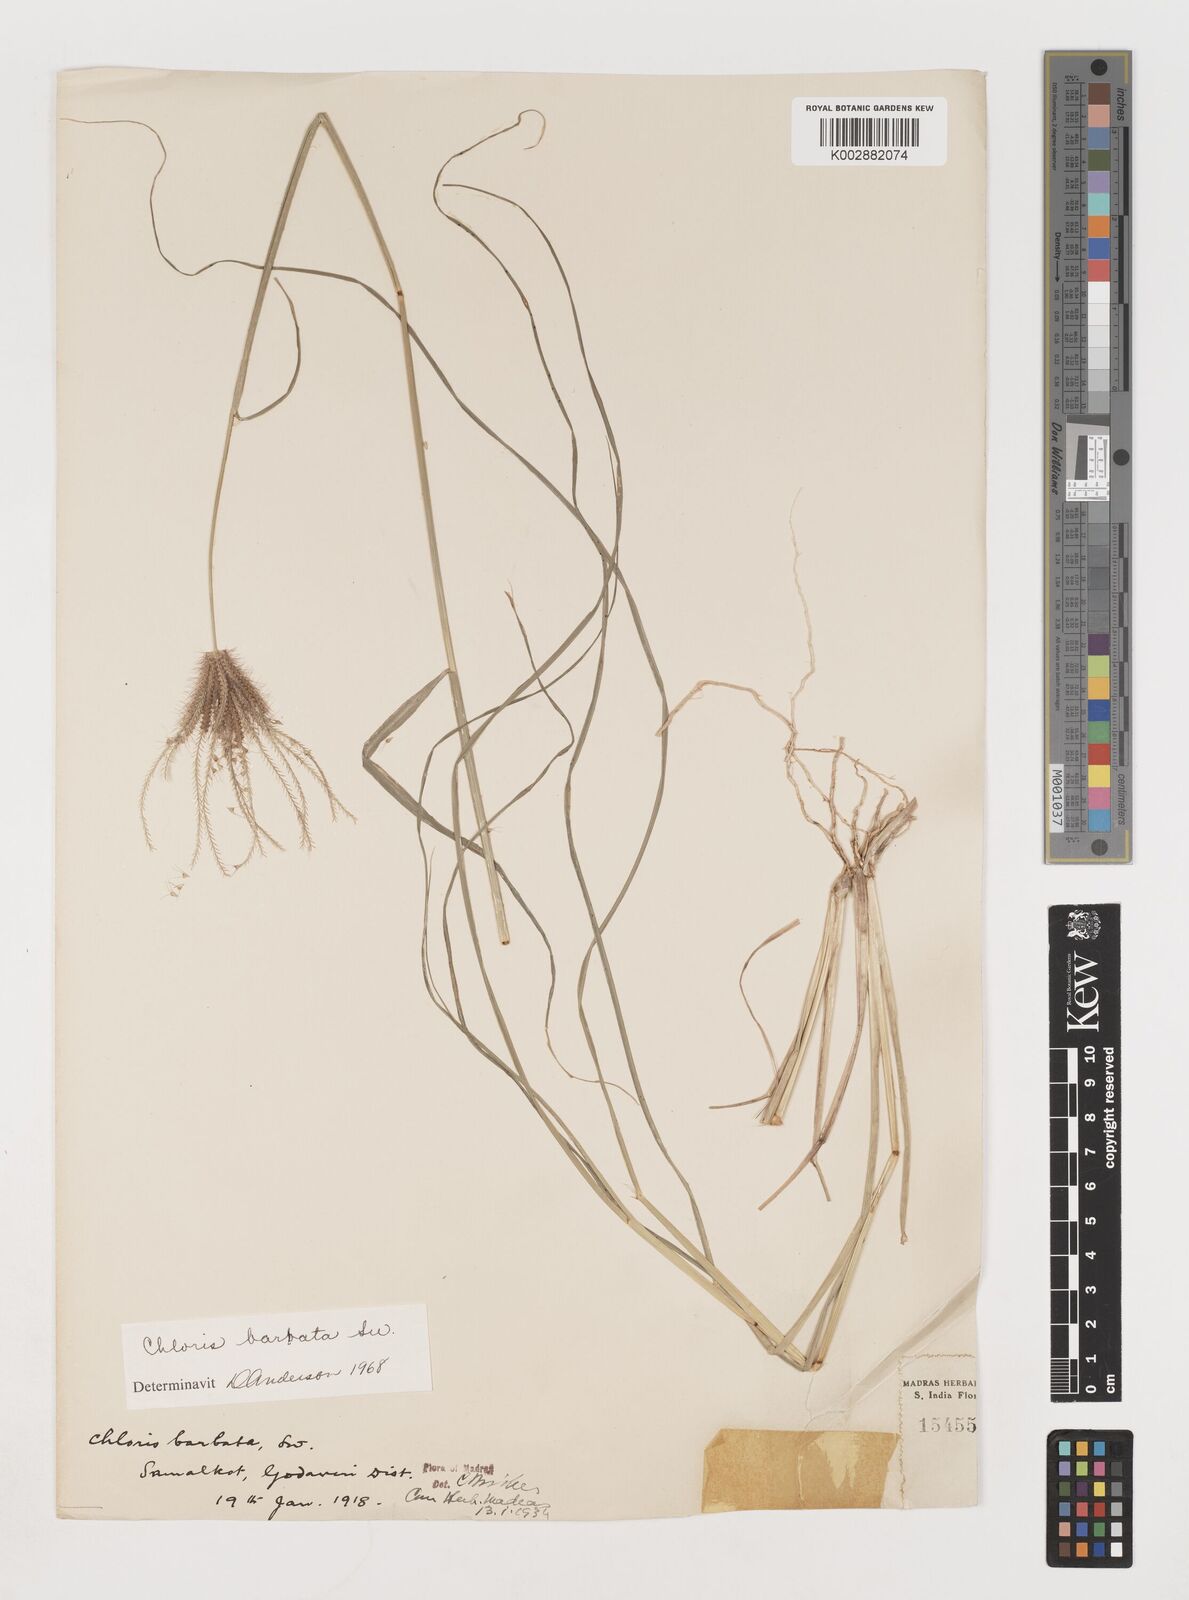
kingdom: Plantae
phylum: Tracheophyta
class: Liliopsida
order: Poales
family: Poaceae
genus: Chloris
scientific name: Chloris barbata
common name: Swollen fingergrass
